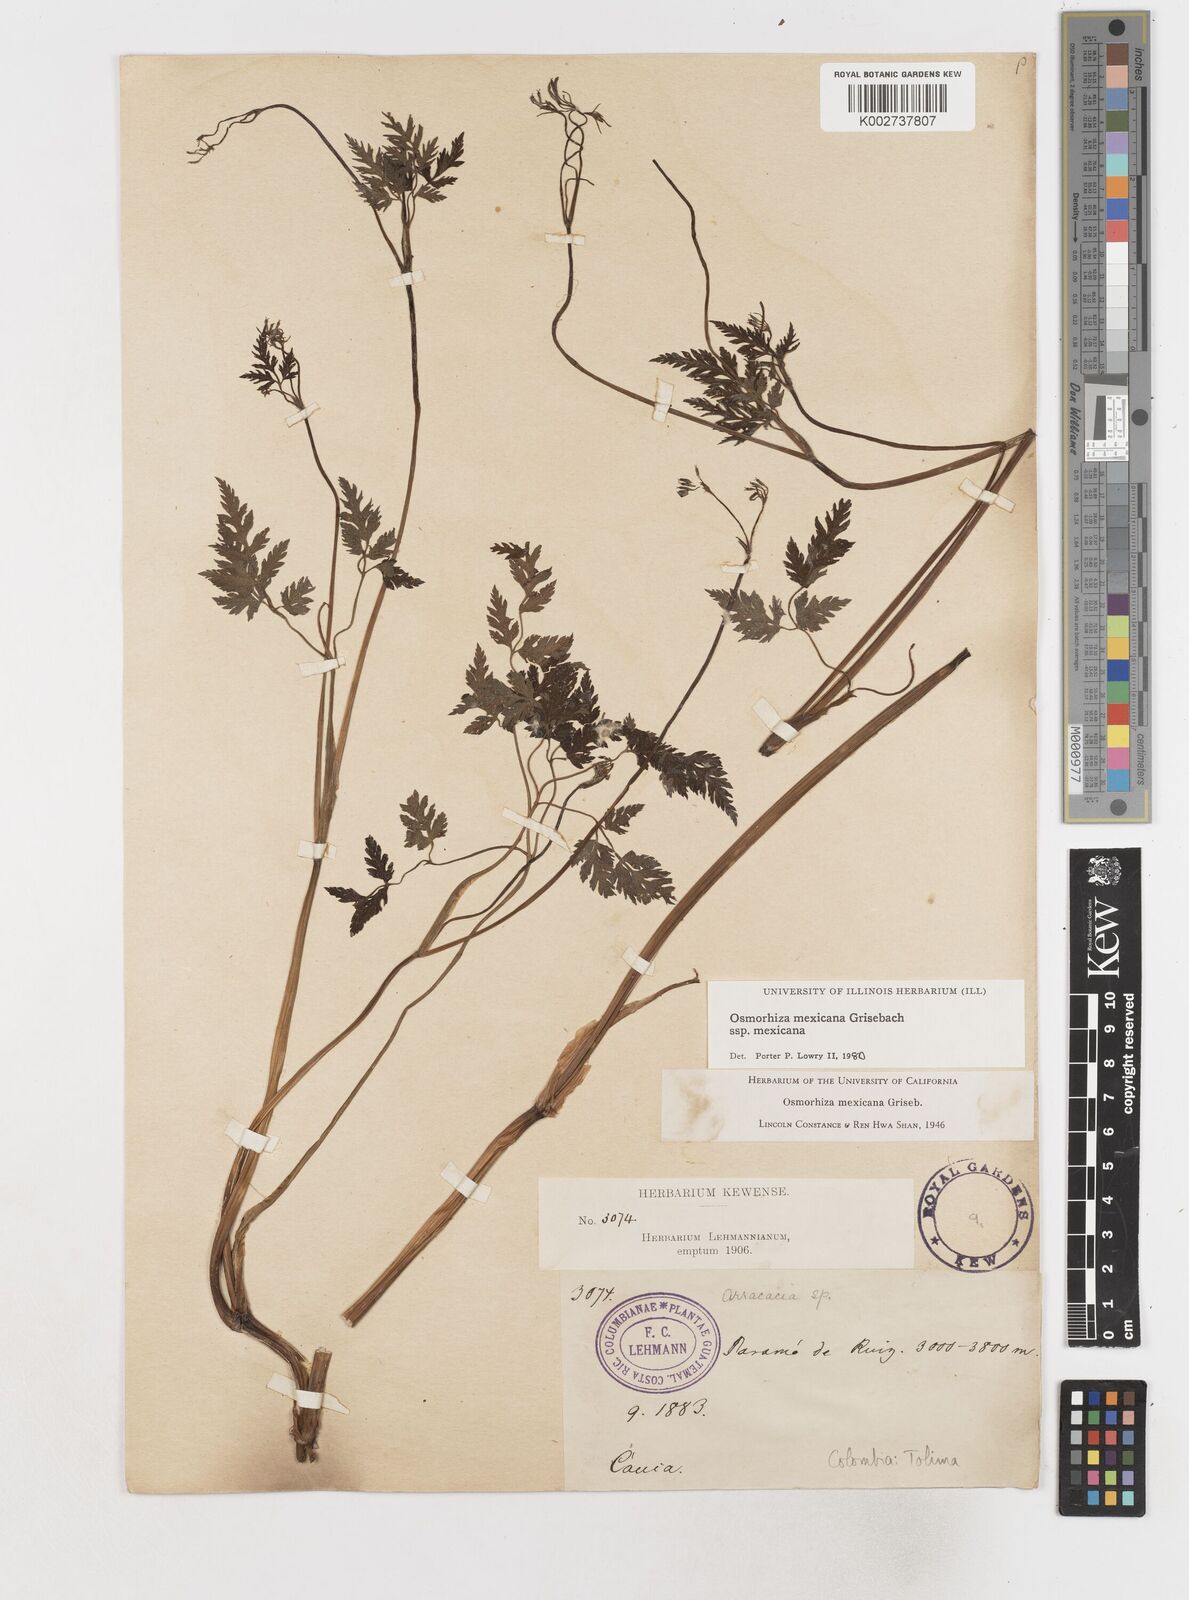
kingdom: Plantae
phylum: Tracheophyta
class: Magnoliopsida
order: Apiales
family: Apiaceae
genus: Osmorhiza
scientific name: Osmorhiza mexicana
